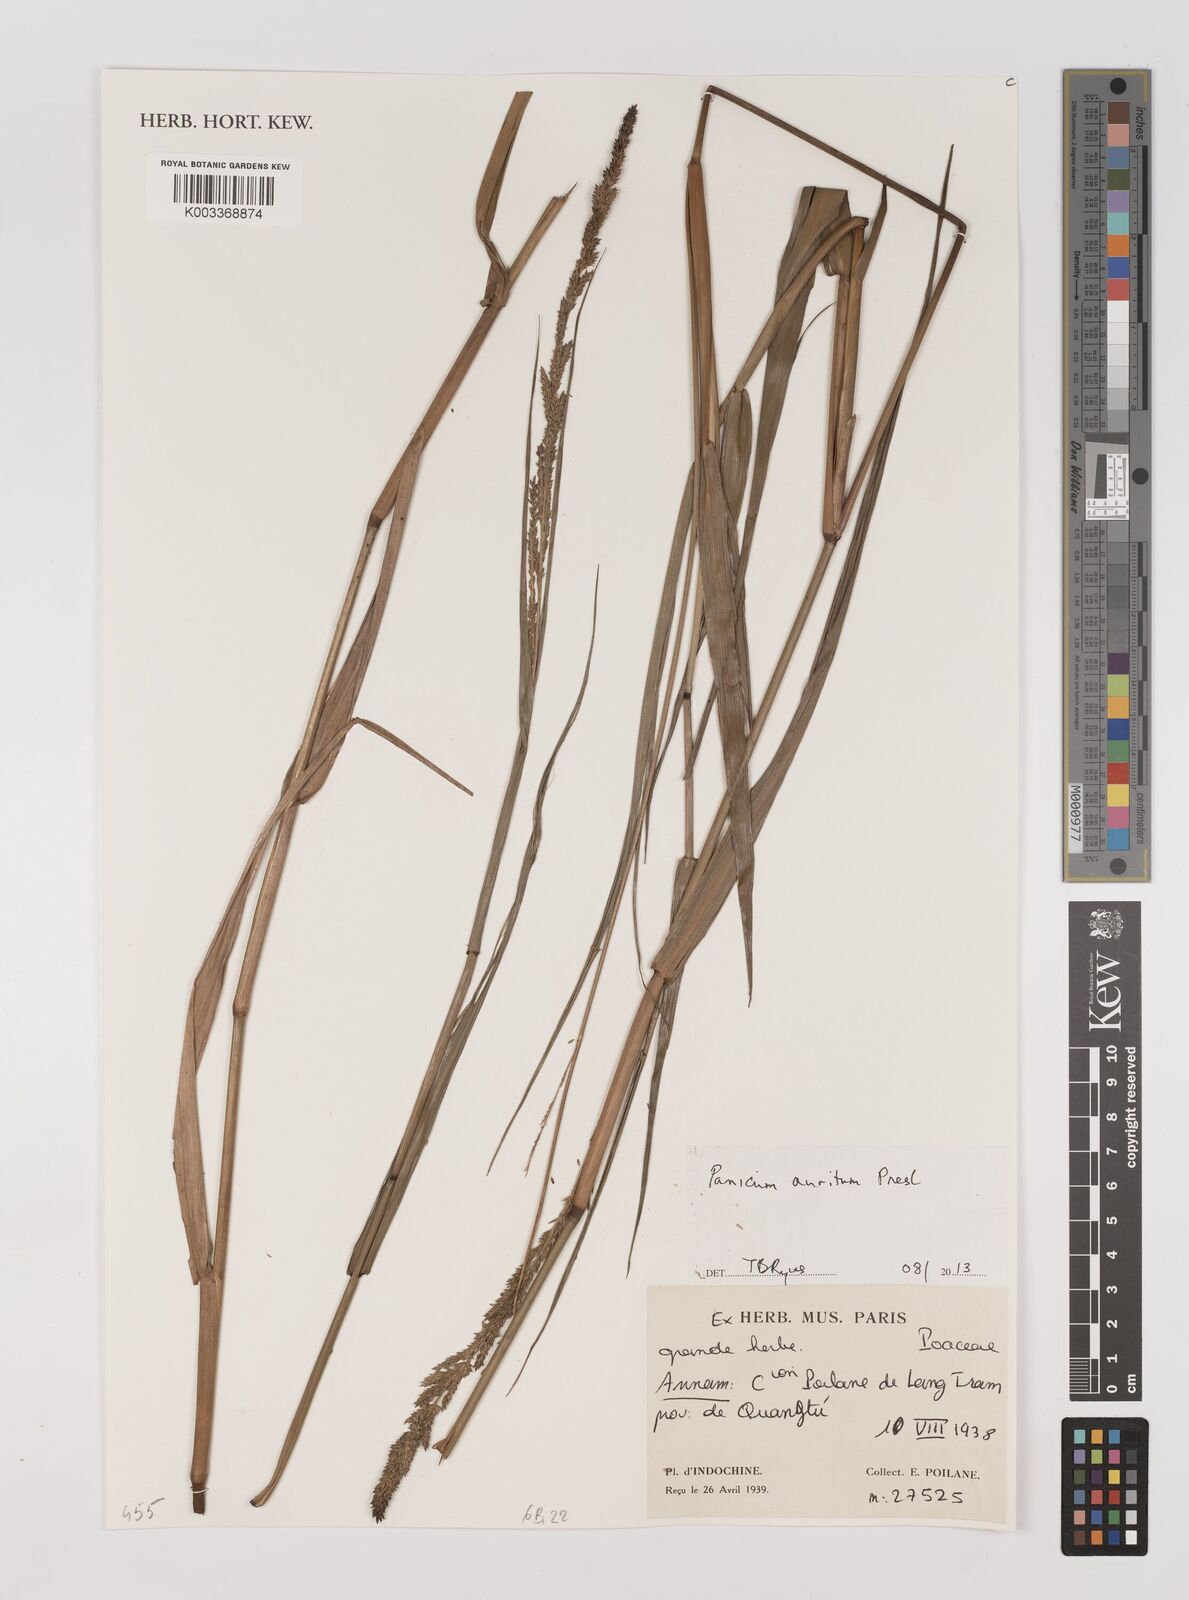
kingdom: Plantae
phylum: Tracheophyta
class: Liliopsida
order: Poales
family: Poaceae
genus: Hymenachne
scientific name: Hymenachne amplexicaulis
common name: Olive hymenachne
